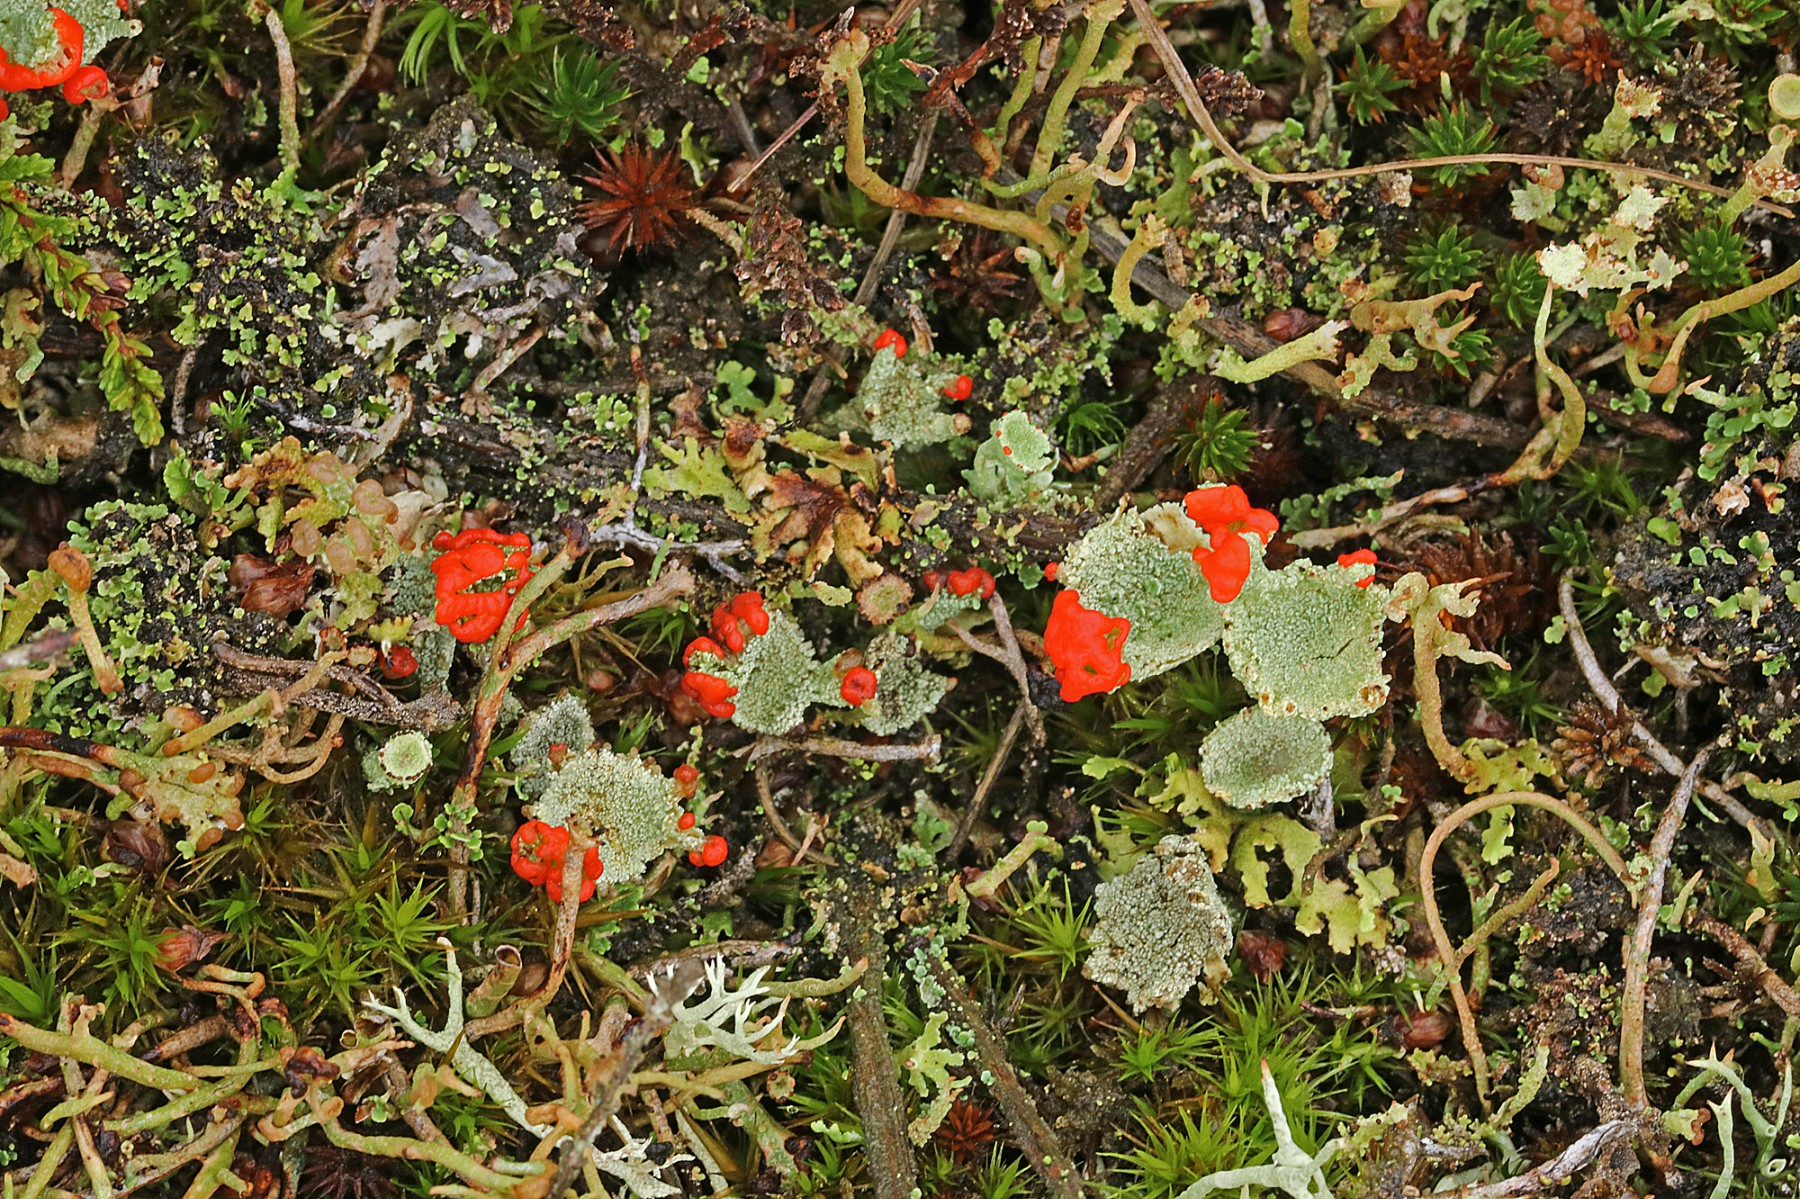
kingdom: Fungi
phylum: Ascomycota
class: Lecanoromycetes
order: Lecanorales
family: Cladoniaceae
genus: Cladonia
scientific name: Cladonia diversa
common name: rød bægerlav
